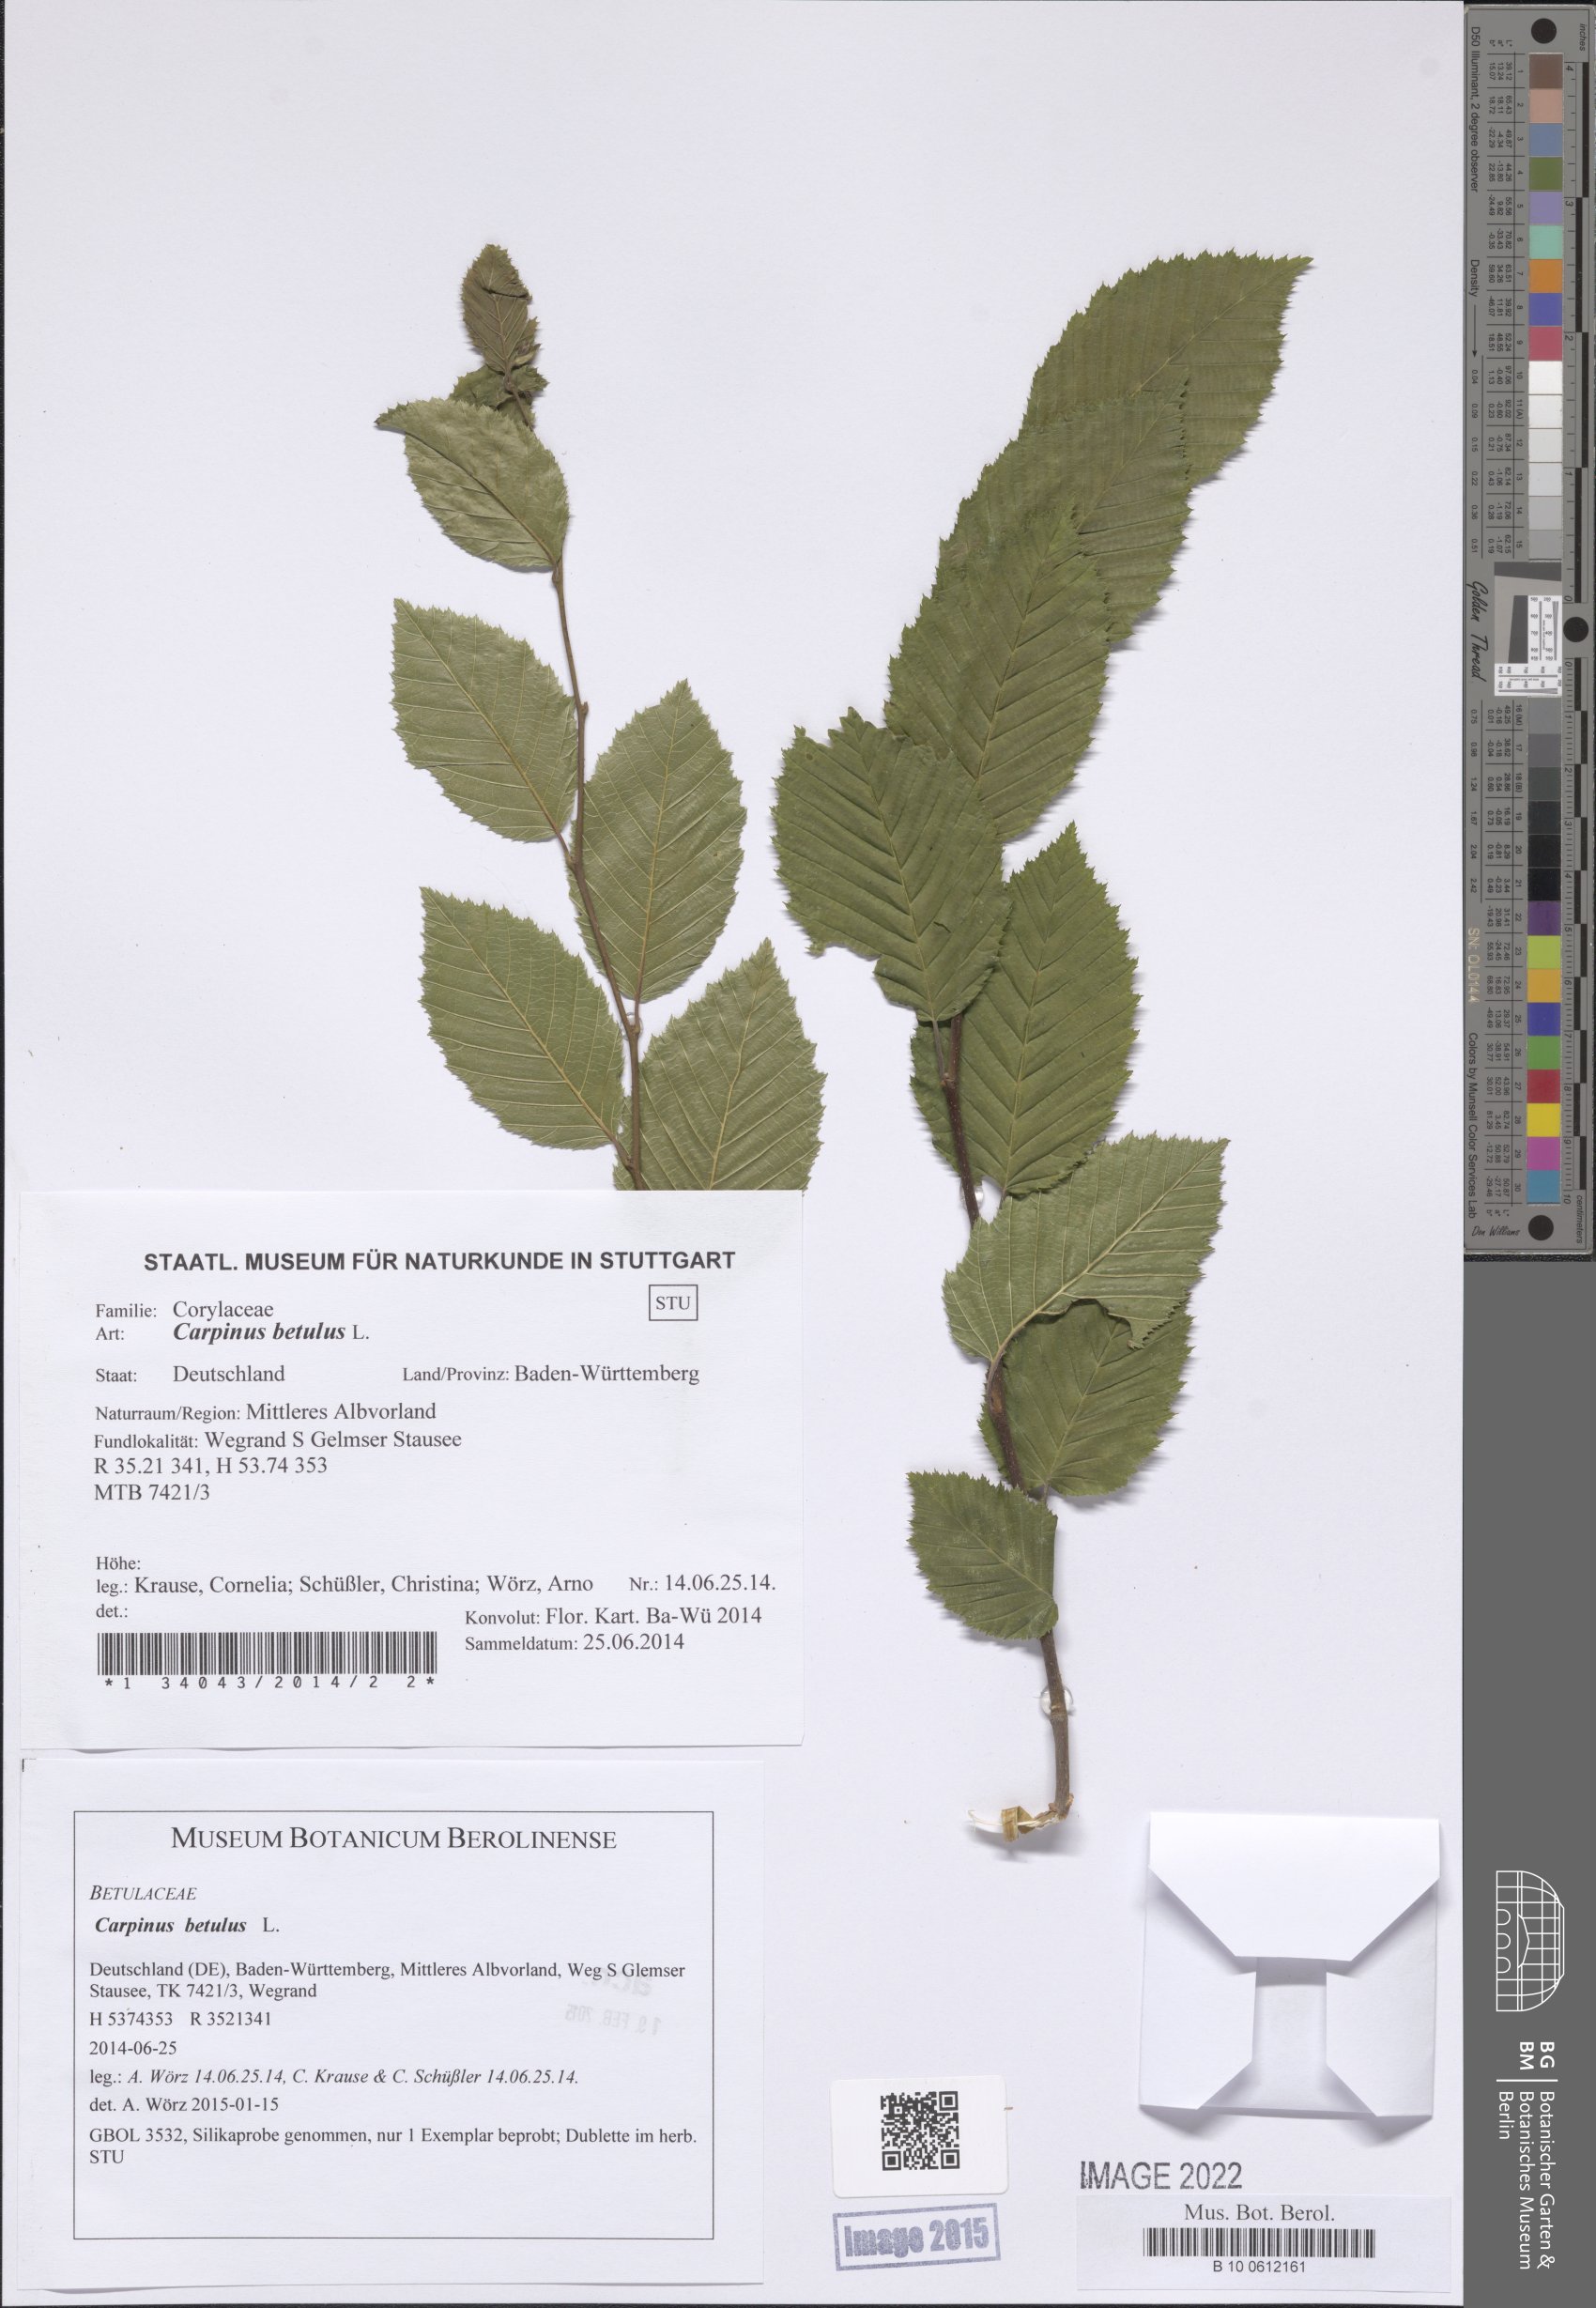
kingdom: Plantae
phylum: Tracheophyta
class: Magnoliopsida
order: Fagales
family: Betulaceae
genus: Carpinus
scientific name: Carpinus betulus
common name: Hornbeam
